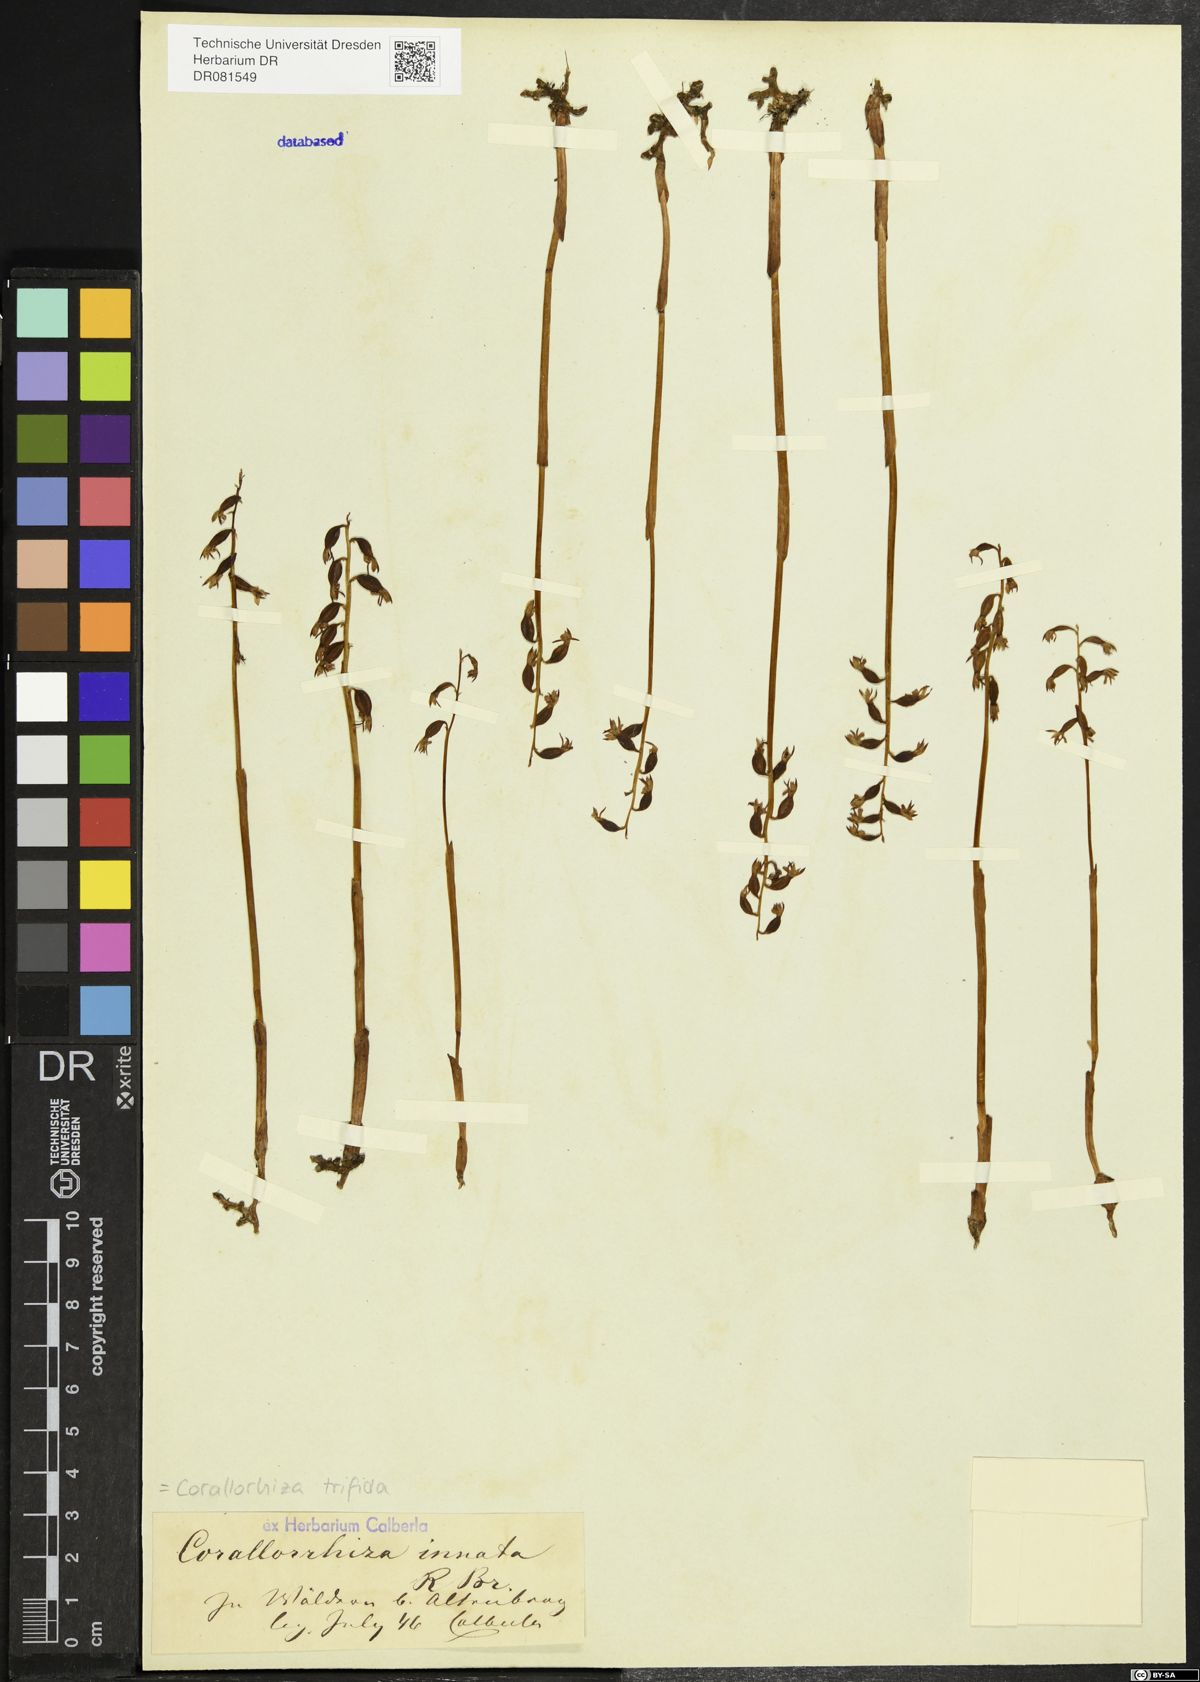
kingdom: Plantae
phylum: Tracheophyta
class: Liliopsida
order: Asparagales
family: Orchidaceae
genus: Corallorhiza
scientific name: Corallorhiza trifida
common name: Yellow coralroot
